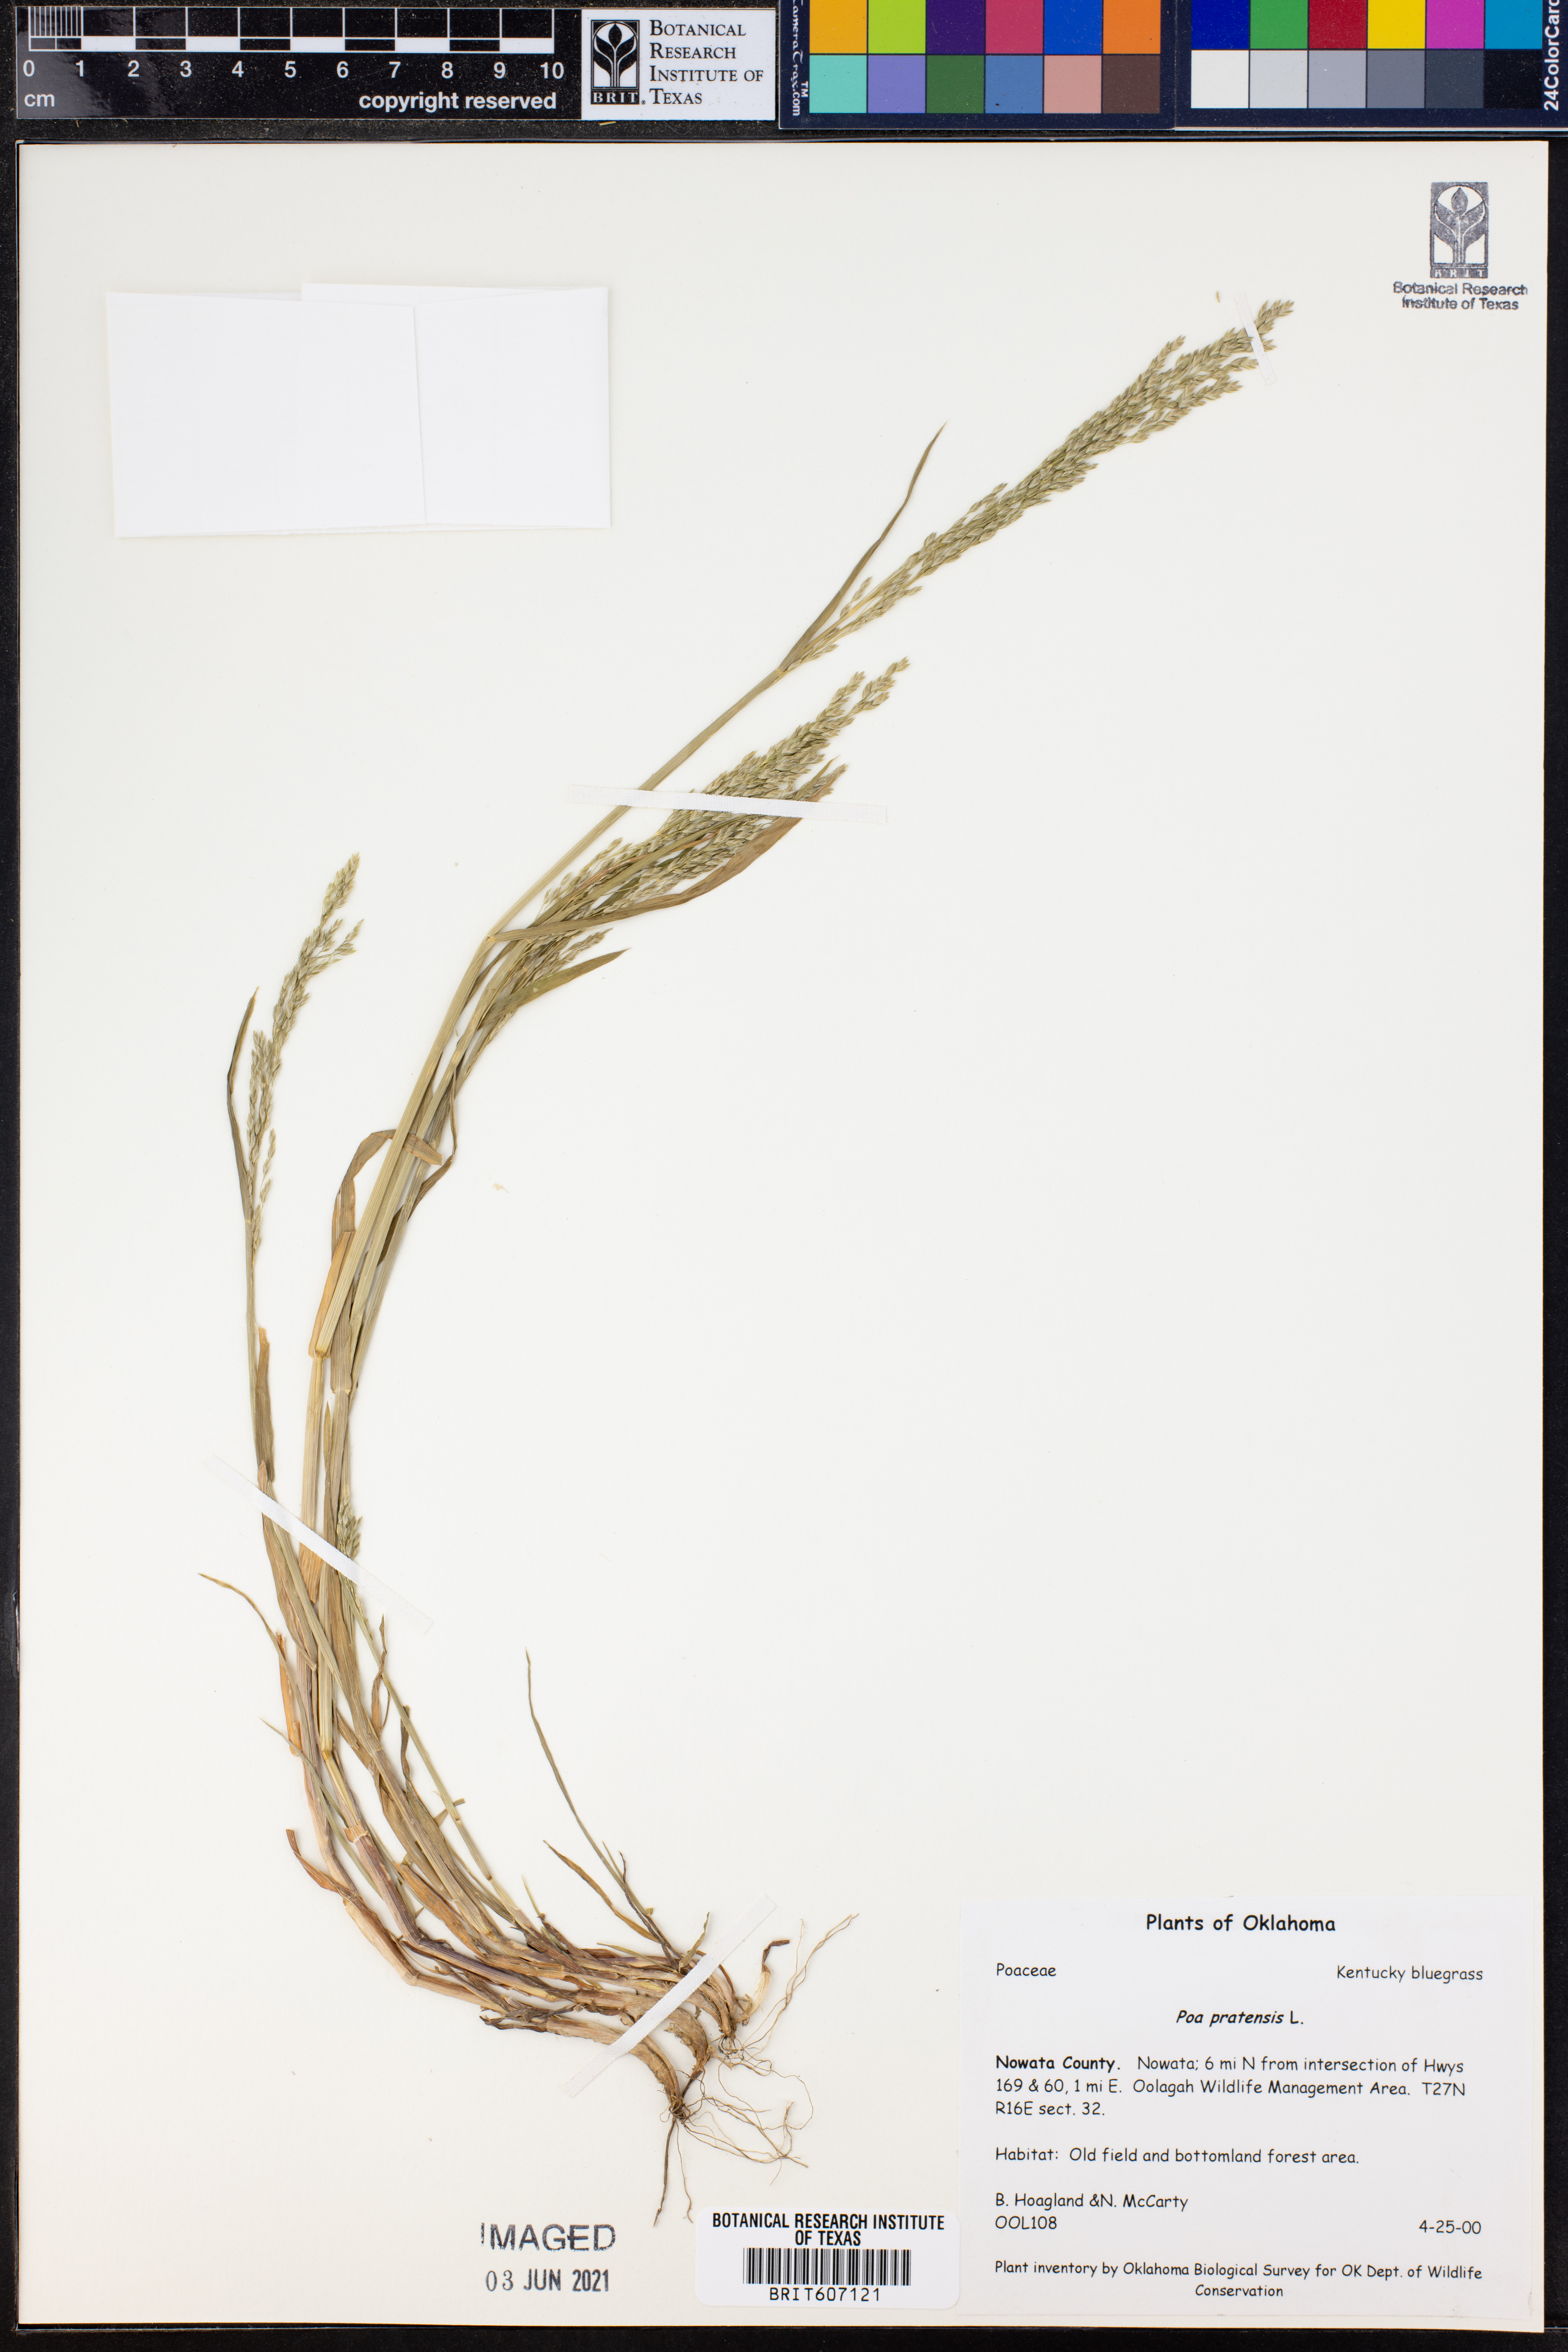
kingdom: Plantae
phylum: Tracheophyta
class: Liliopsida
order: Poales
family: Poaceae
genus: Poa
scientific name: Poa pratensis
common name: Kentucky bluegrass
